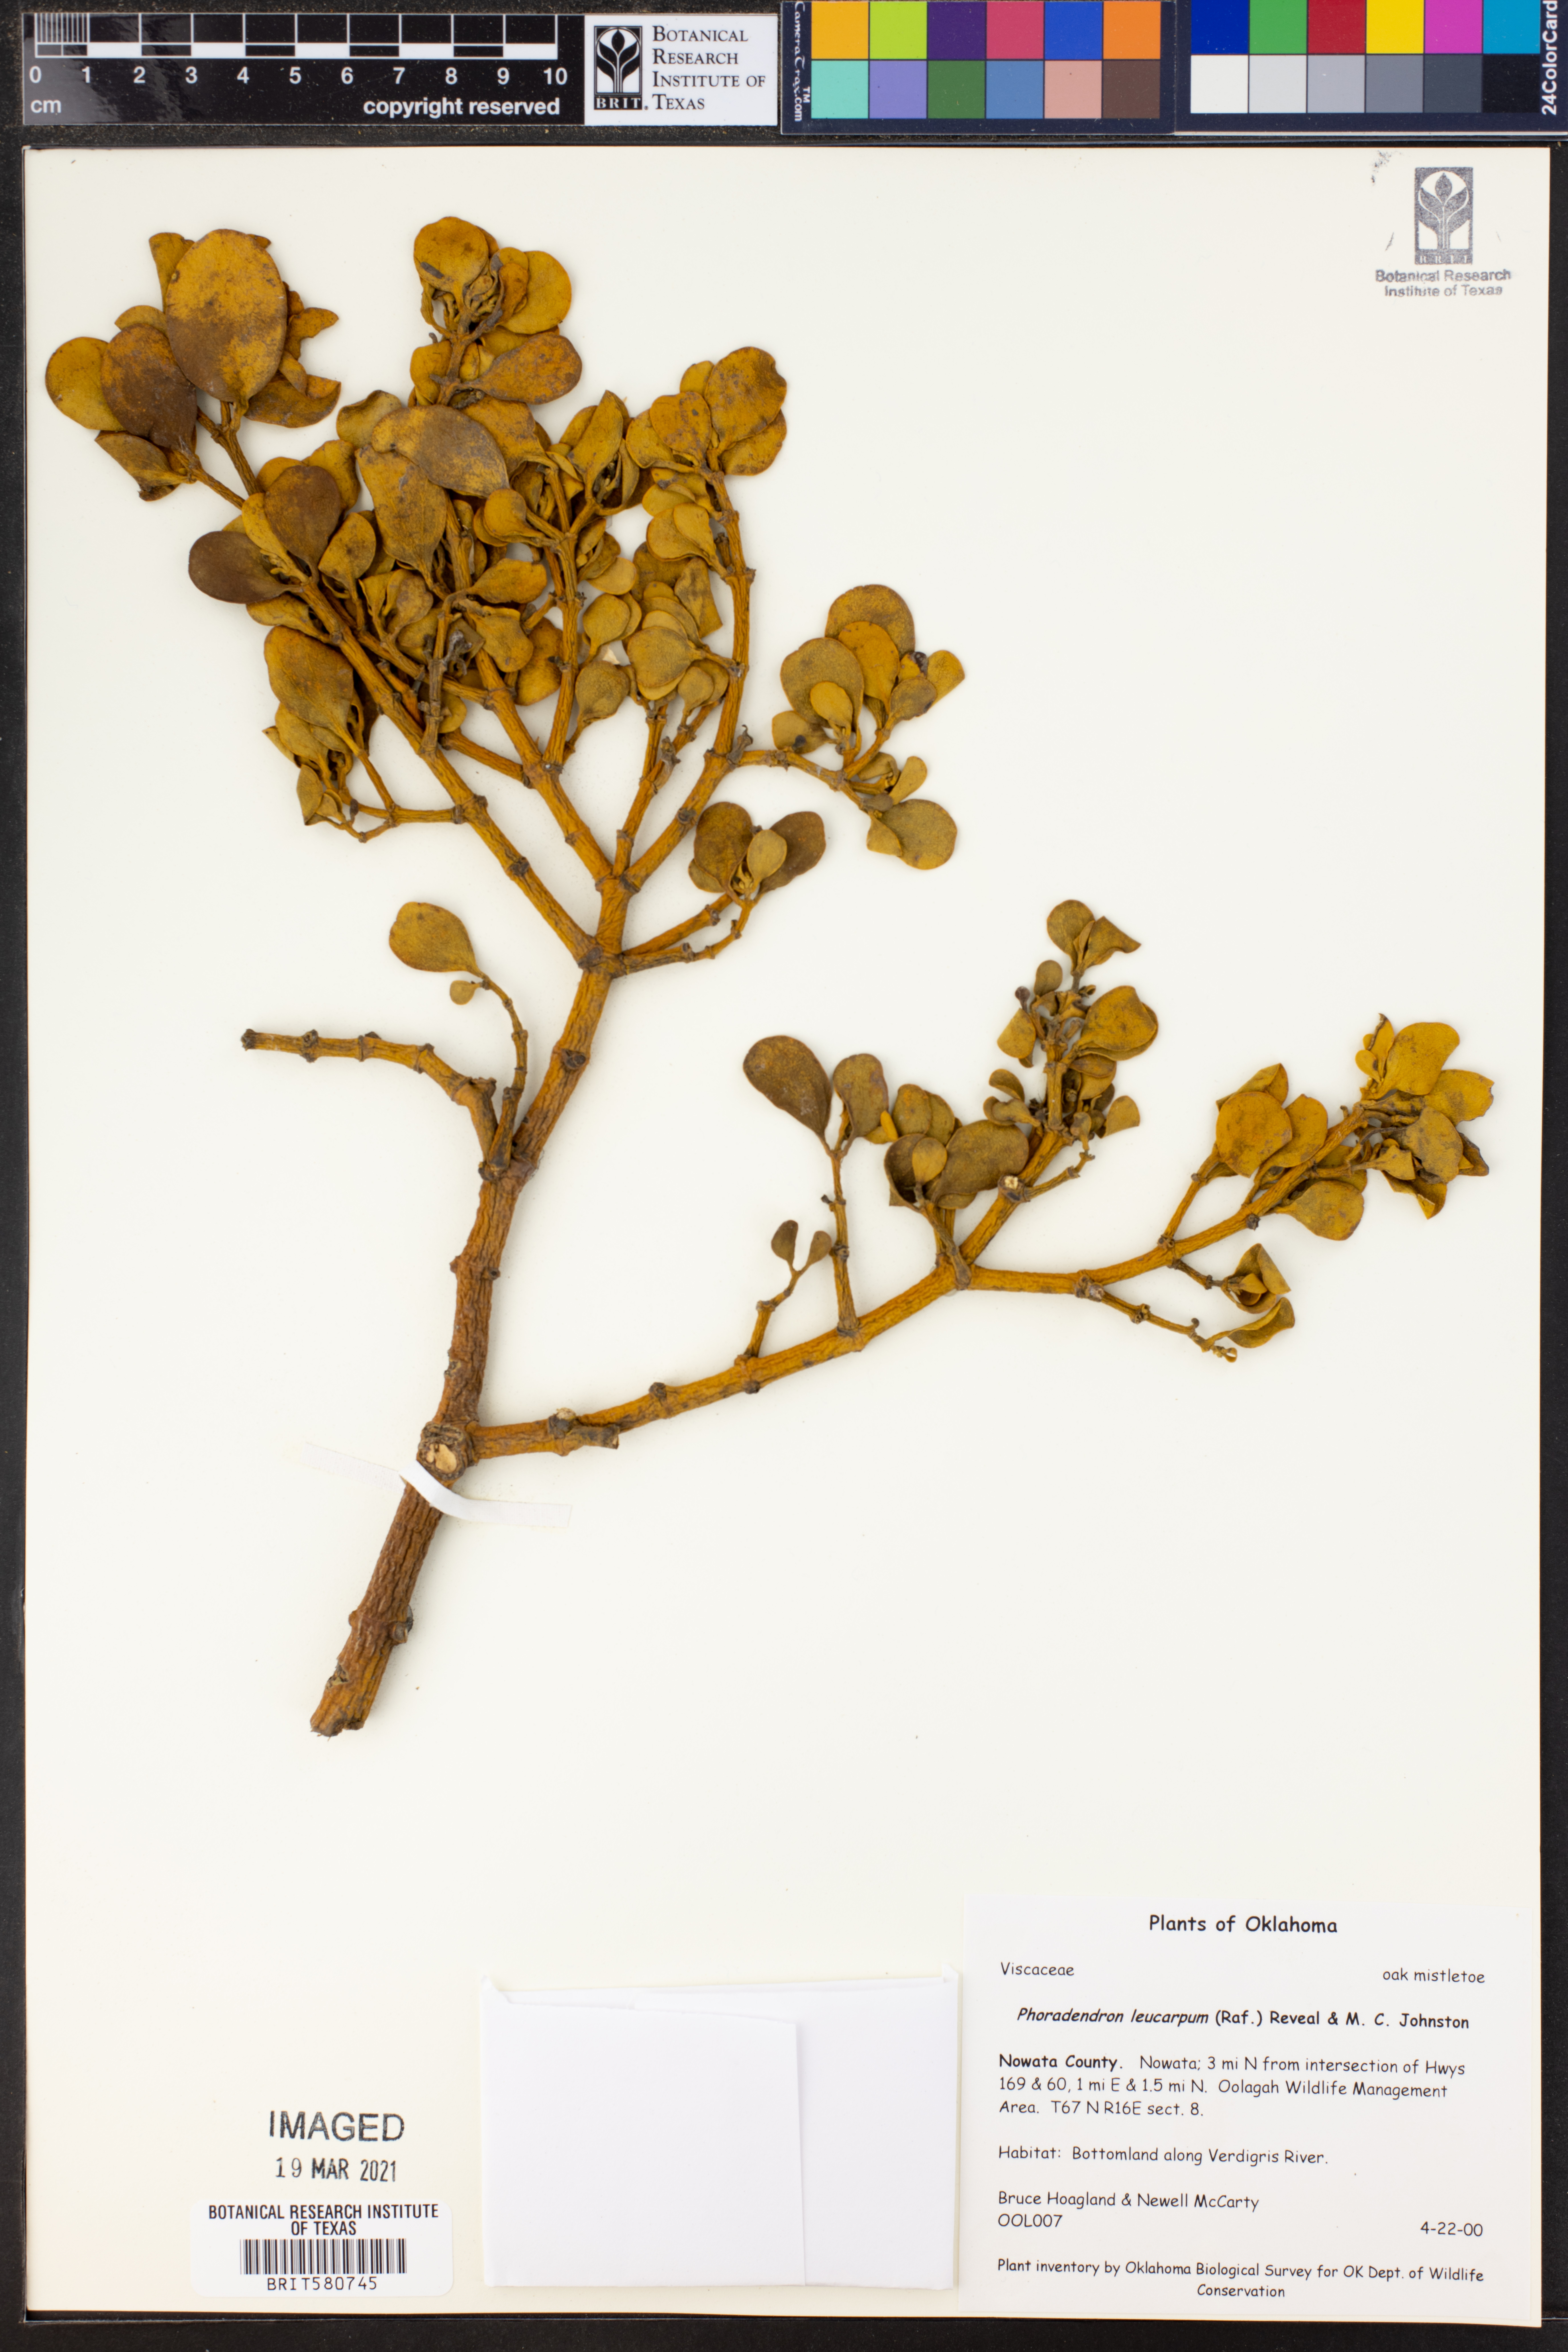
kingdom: Plantae
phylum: Tracheophyta
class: Magnoliopsida
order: Santalales
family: Viscaceae
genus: Phoradendron
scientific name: Phoradendron leucarpum
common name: Pacific mistletoe
